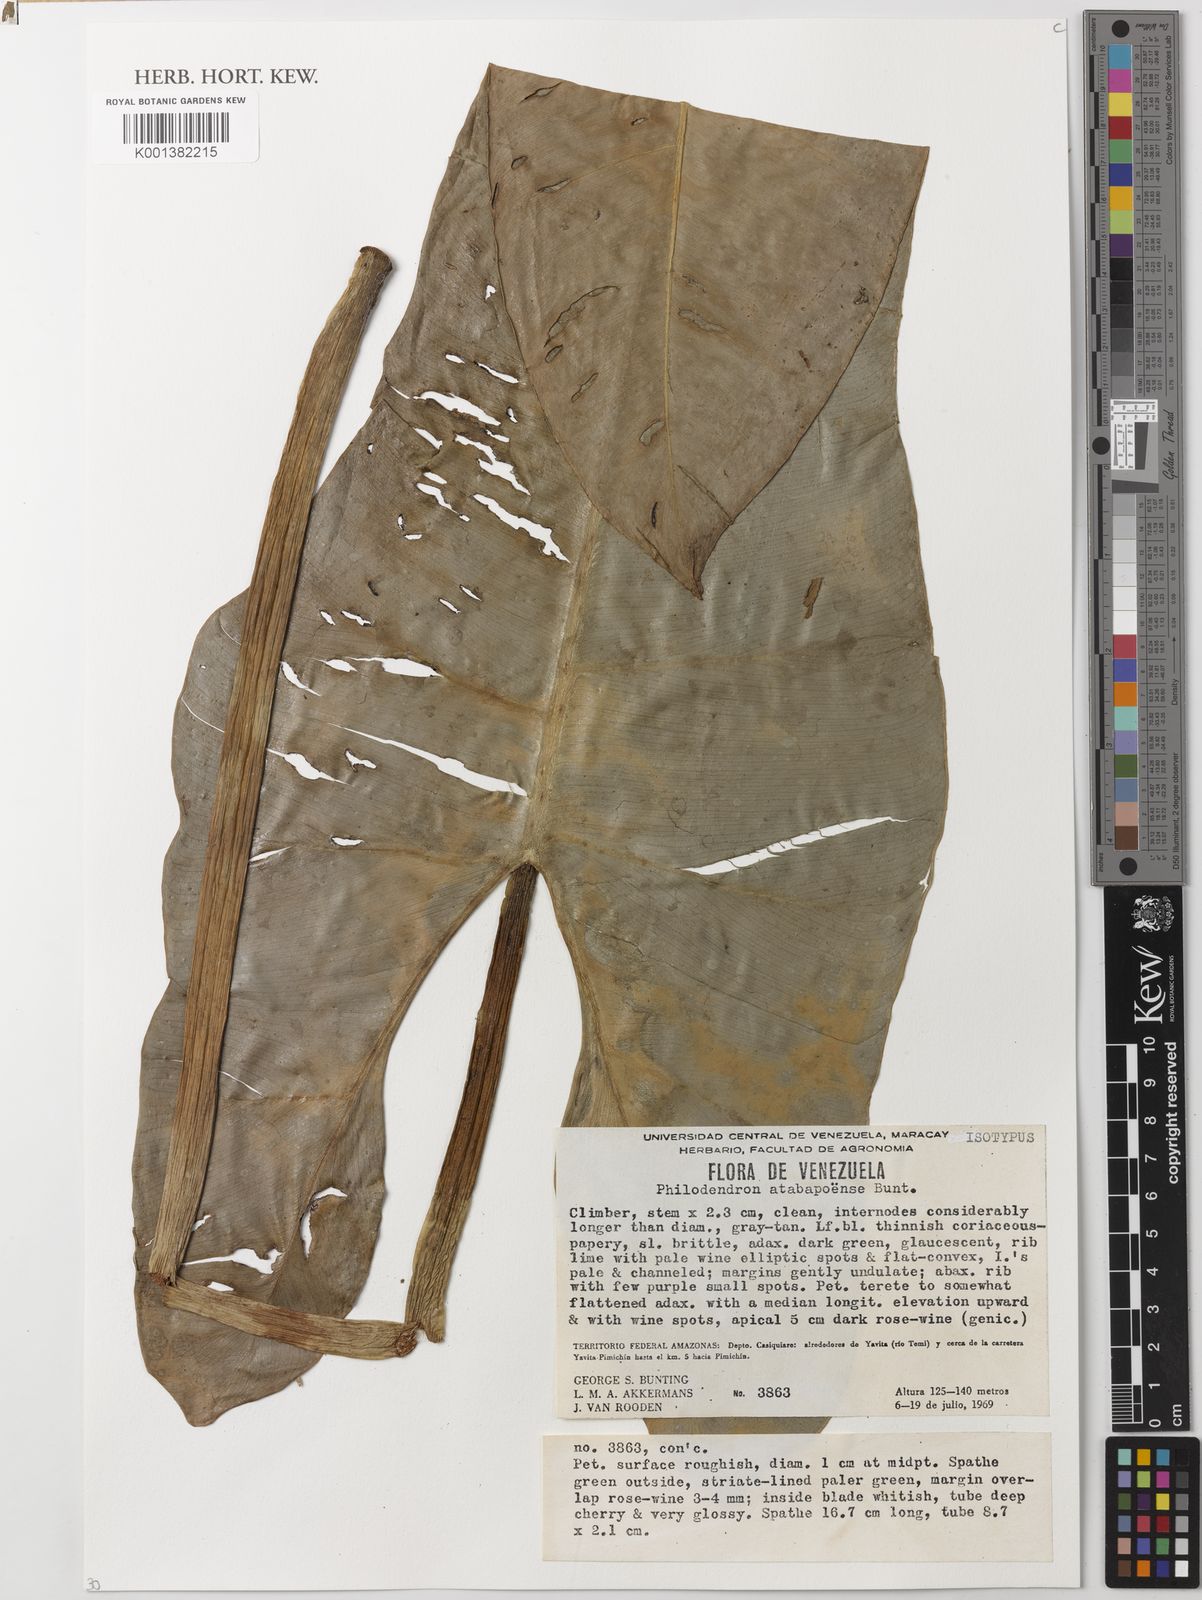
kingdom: Plantae
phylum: Tracheophyta
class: Liliopsida
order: Alismatales
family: Araceae
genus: Philodendron
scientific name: Philodendron atabapoense
